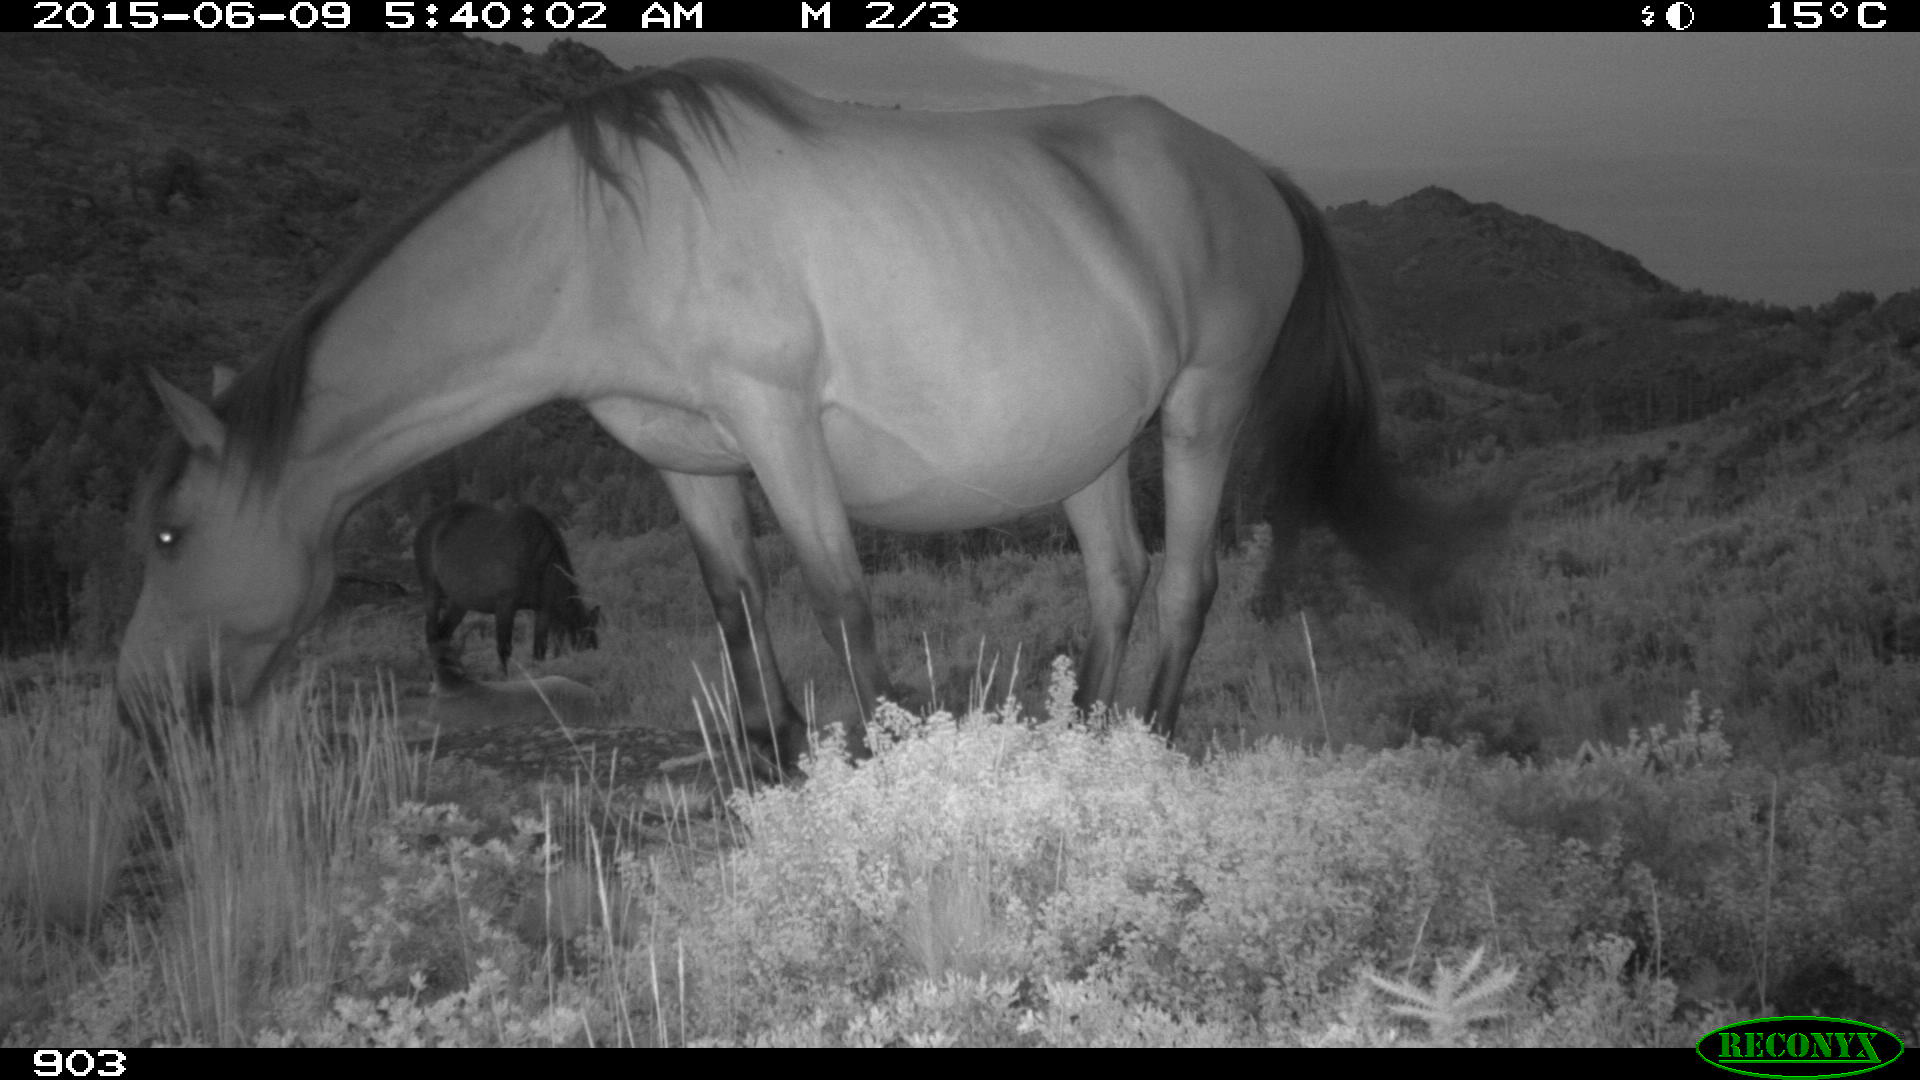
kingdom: Animalia
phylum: Chordata
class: Mammalia
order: Perissodactyla
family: Equidae
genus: Equus
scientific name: Equus caballus
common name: Horse
